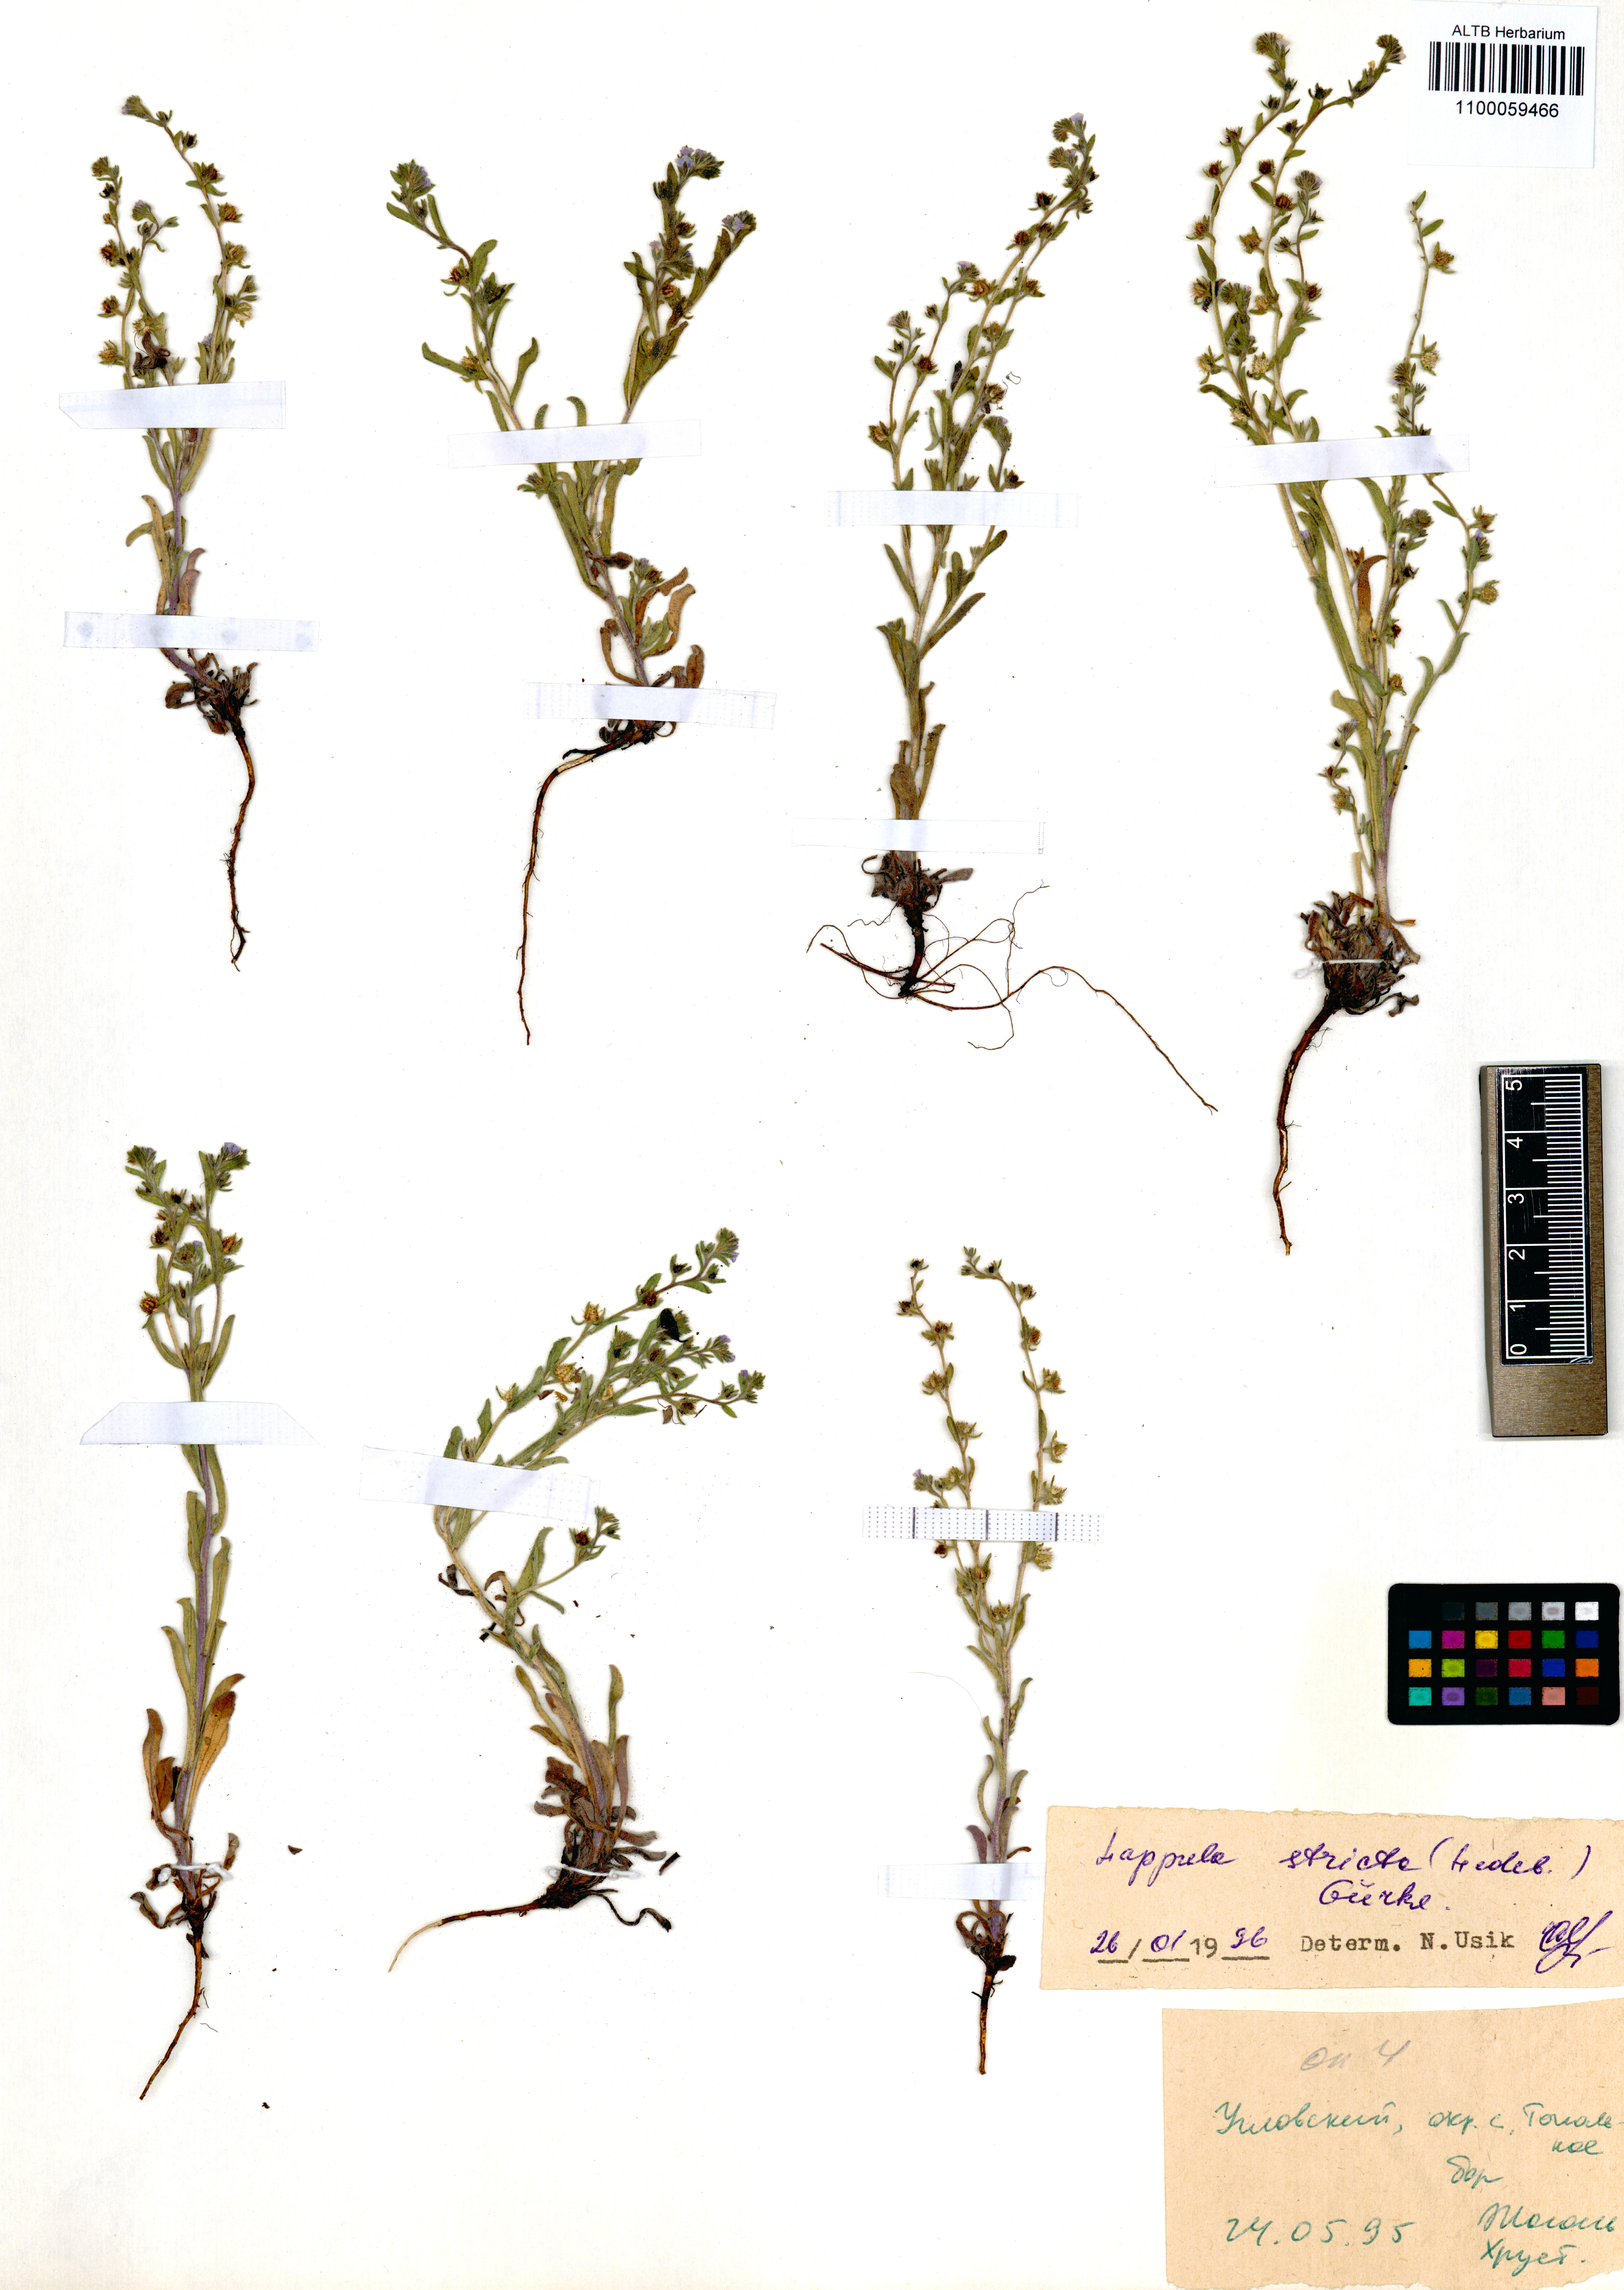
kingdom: Plantae
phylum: Tracheophyta
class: Magnoliopsida
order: Boraginales
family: Boraginaceae
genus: Lappula
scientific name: Lappula stricta
